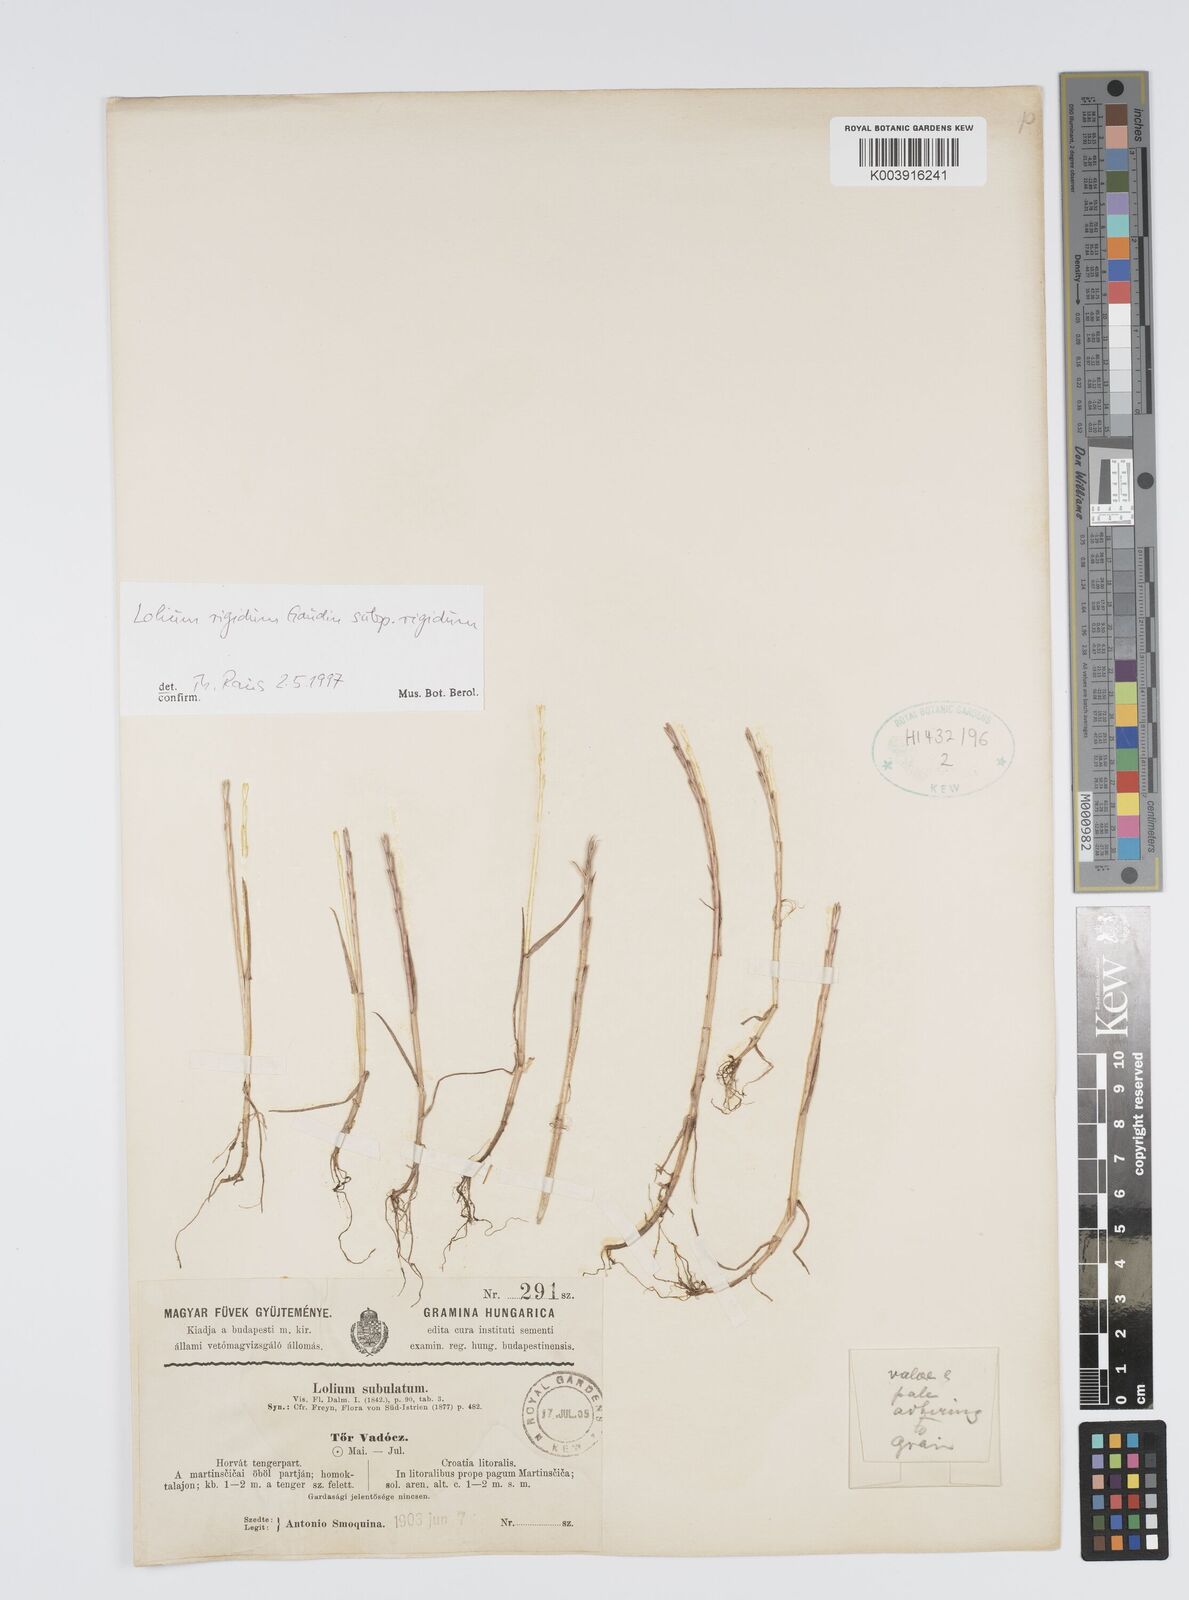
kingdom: Plantae
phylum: Tracheophyta
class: Liliopsida
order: Poales
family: Poaceae
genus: Lolium
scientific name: Lolium rigidum
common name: Wimmera ryegrass
